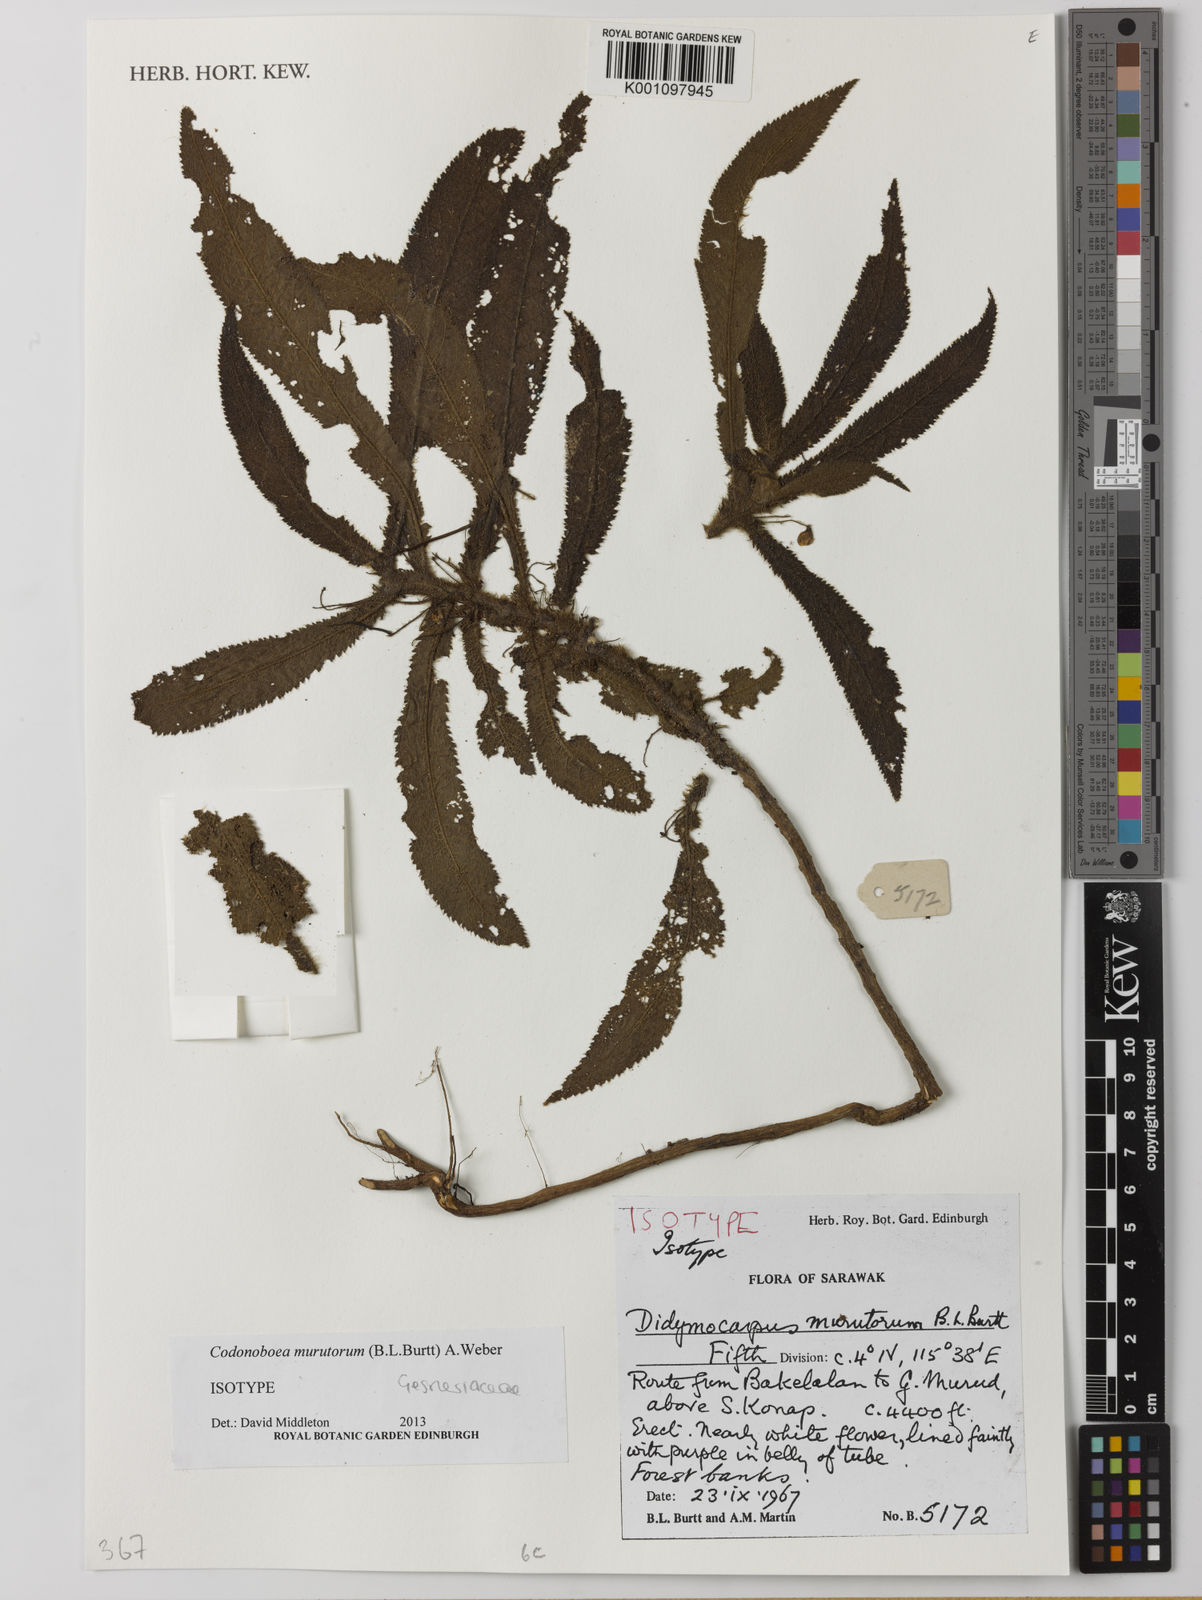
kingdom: Plantae
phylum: Tracheophyta
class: Magnoliopsida
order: Lamiales
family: Gesneriaceae
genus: Codonoboea
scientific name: Codonoboea
